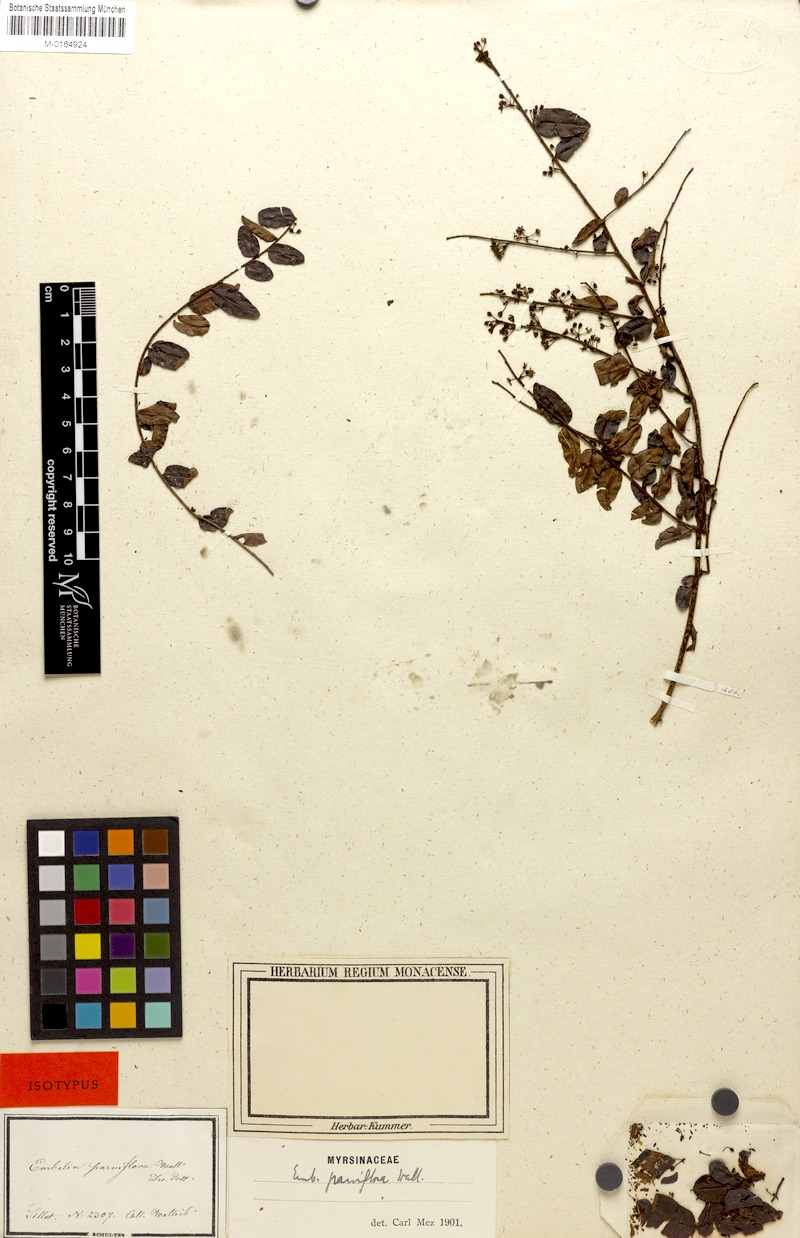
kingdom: Plantae
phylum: Tracheophyta
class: Magnoliopsida
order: Ericales
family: Primulaceae
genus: Embelia
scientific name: Embelia parviflora
